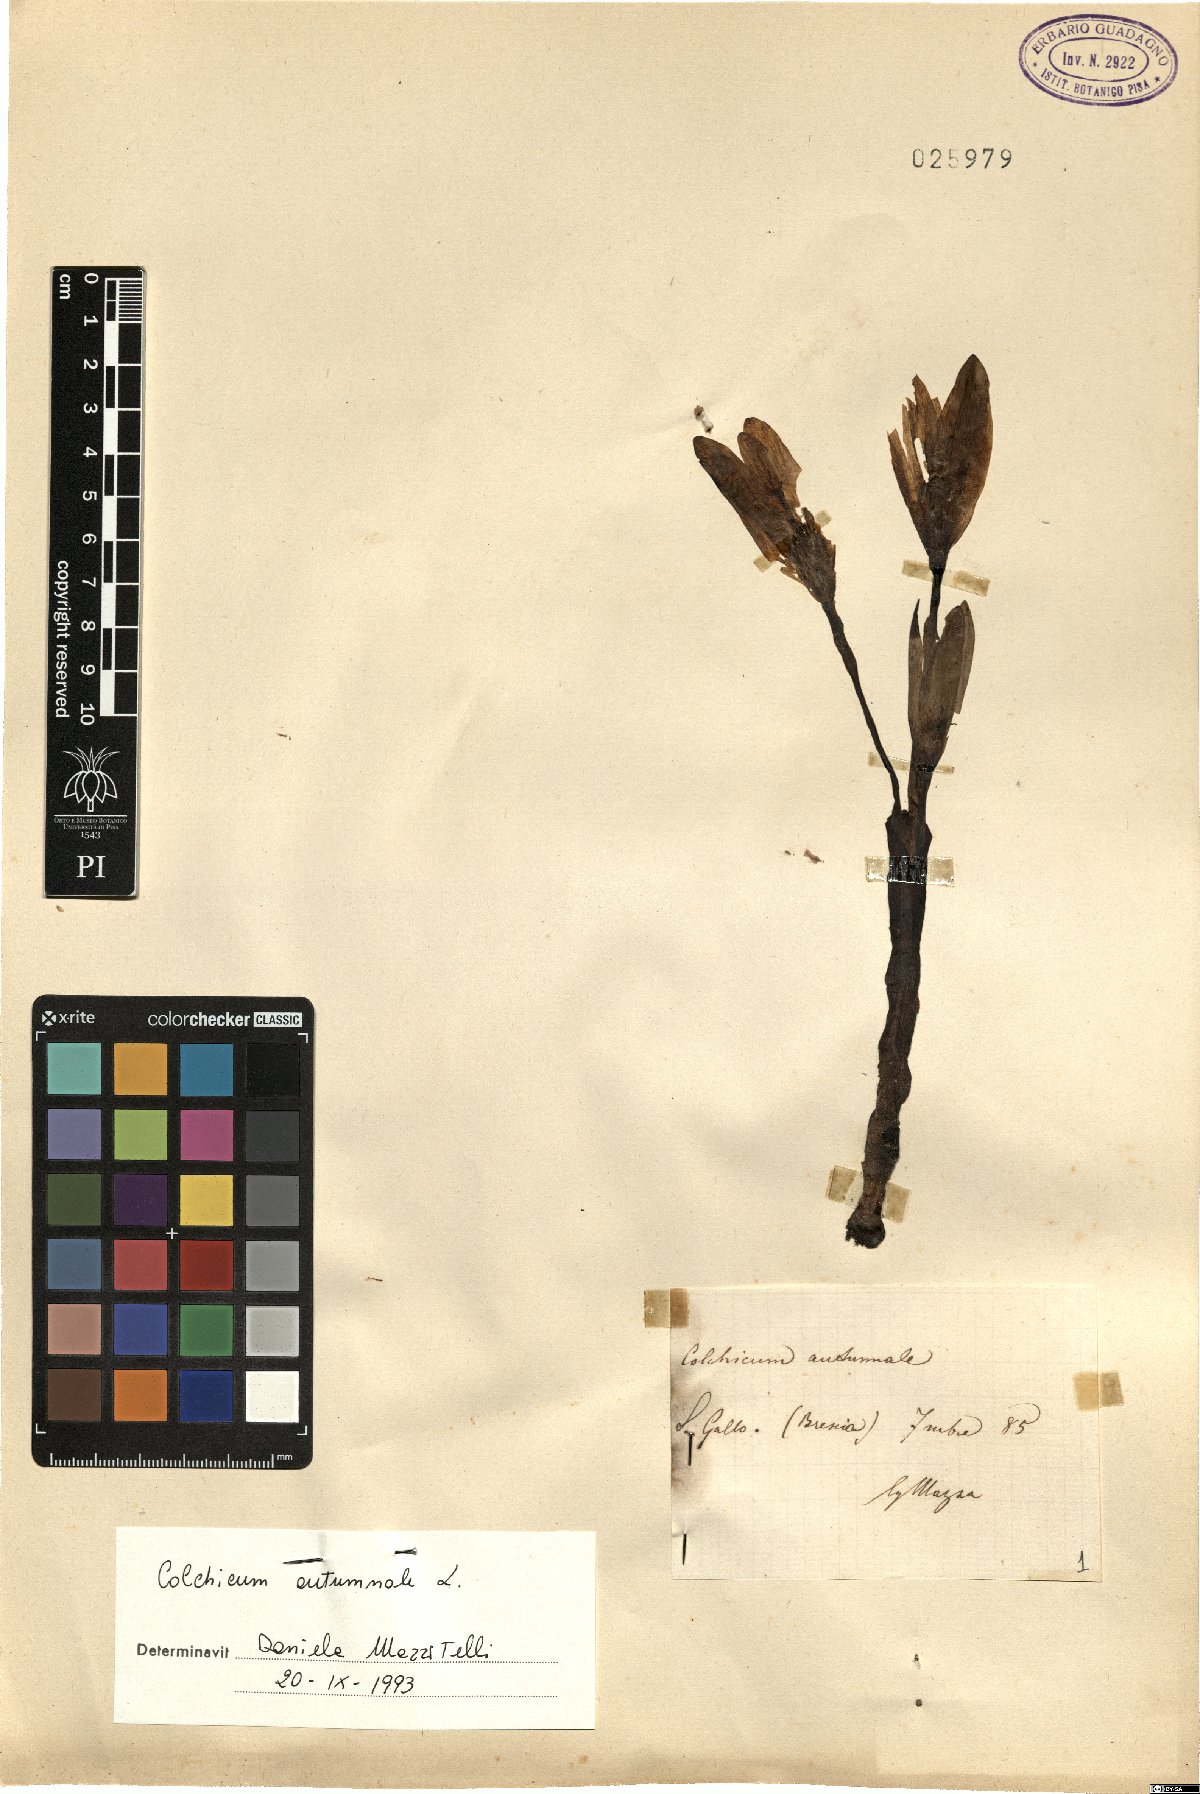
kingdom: Plantae
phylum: Tracheophyta
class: Liliopsida
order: Liliales
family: Colchicaceae
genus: Colchicum
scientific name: Colchicum autumnale
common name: Autumn crocus
